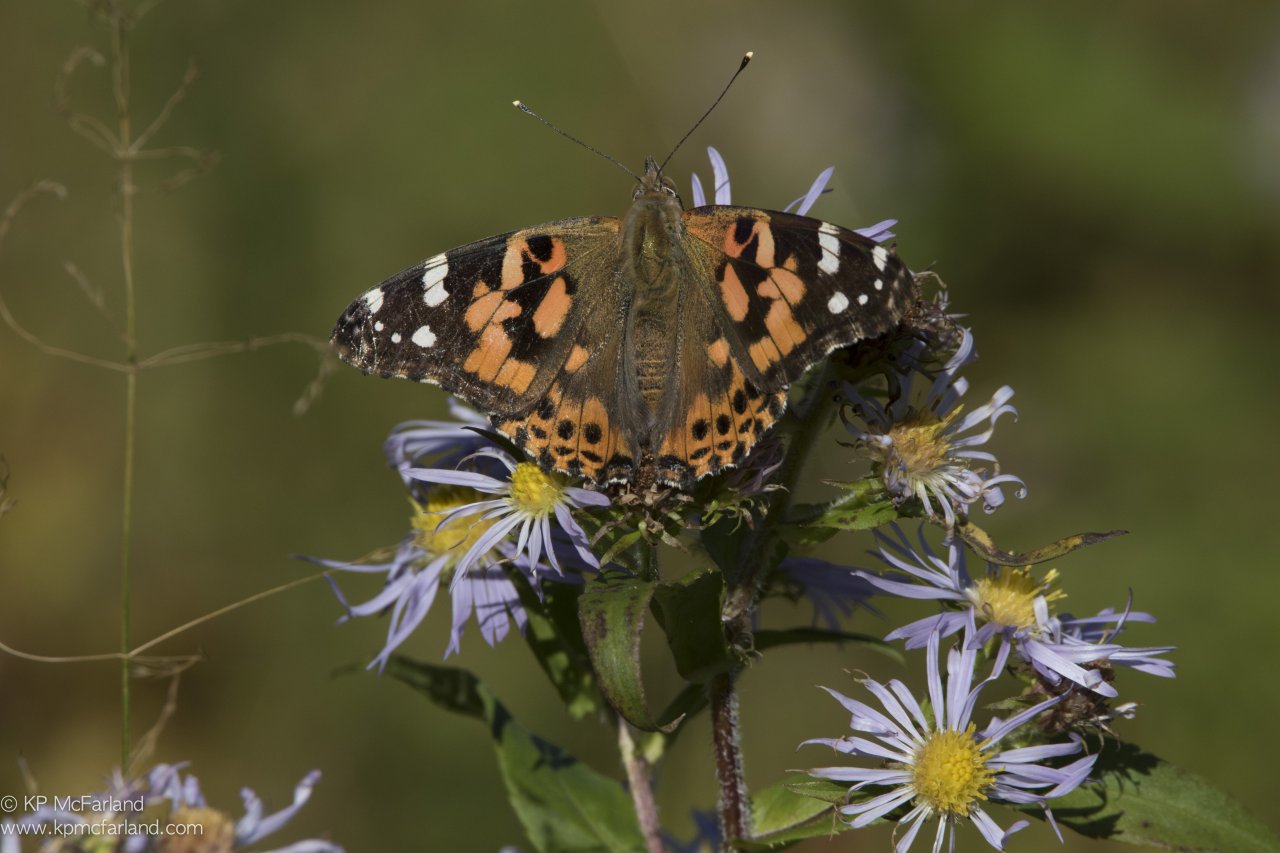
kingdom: Animalia
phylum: Arthropoda
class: Insecta
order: Lepidoptera
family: Nymphalidae
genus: Vanessa
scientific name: Vanessa cardui
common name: Painted Lady
